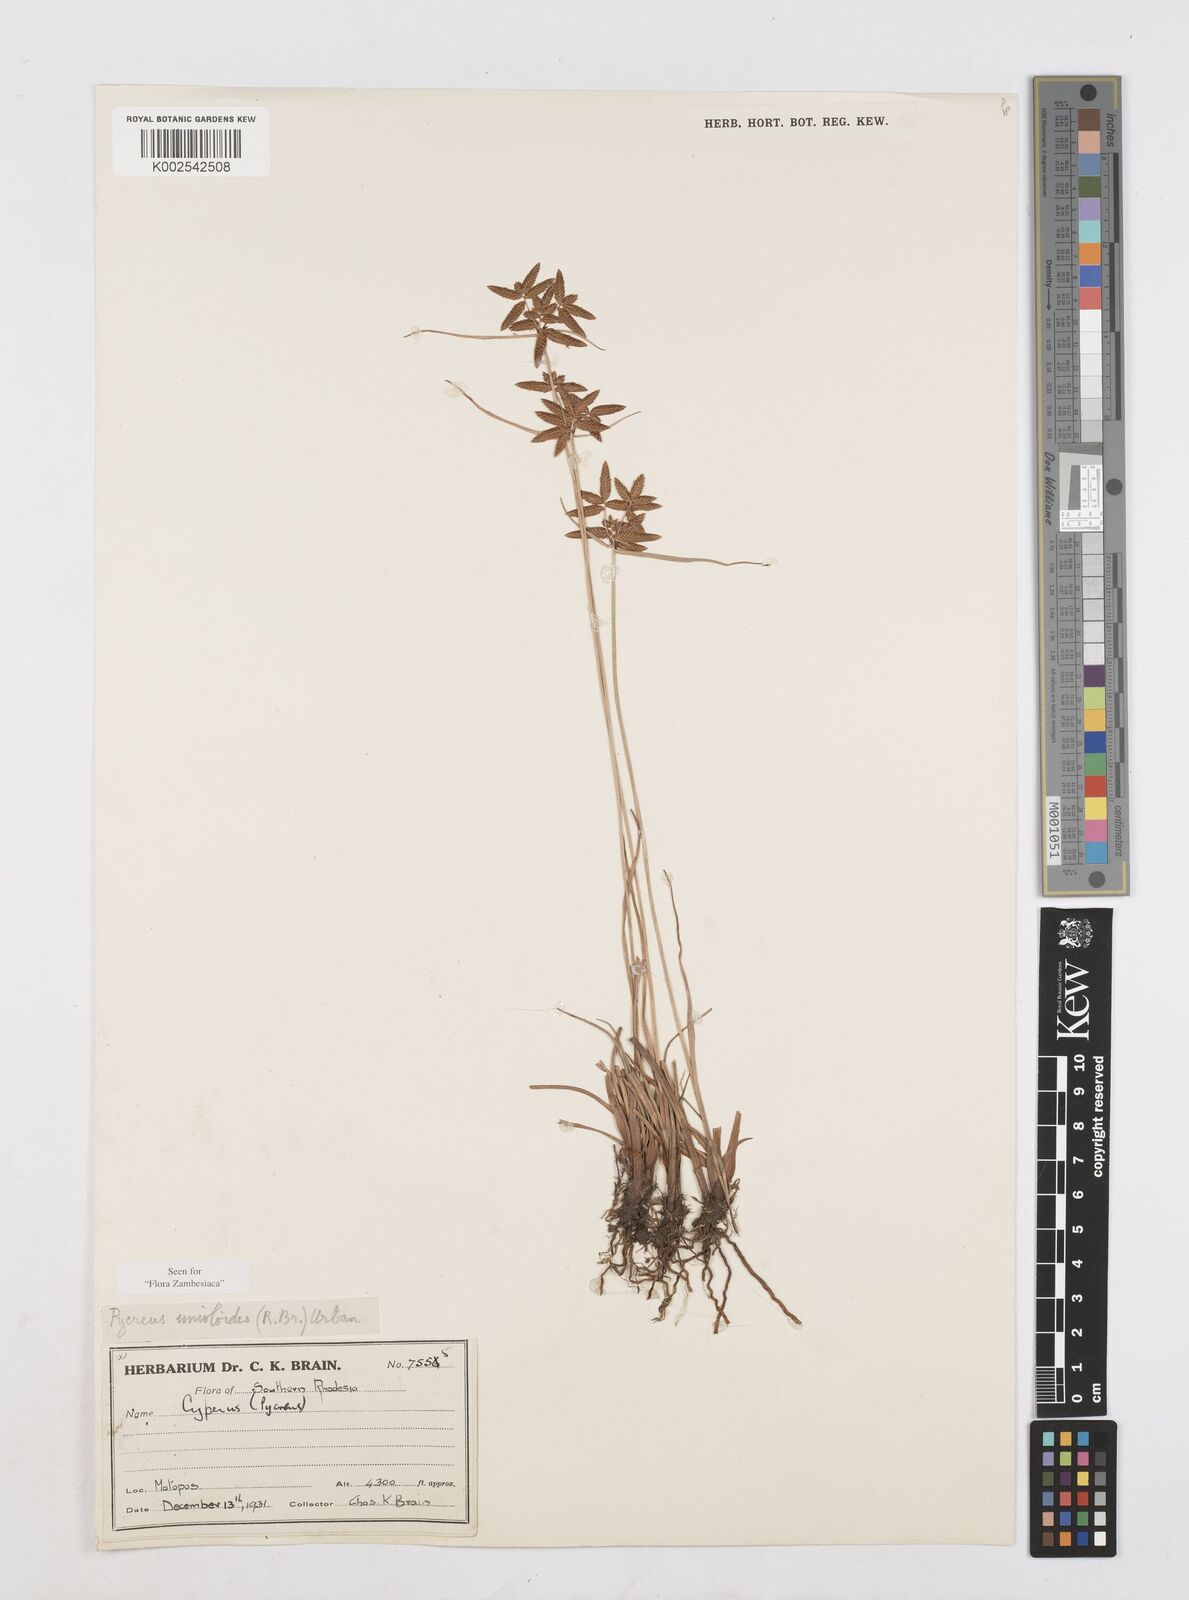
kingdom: Plantae
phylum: Tracheophyta
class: Liliopsida
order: Poales
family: Cyperaceae
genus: Cyperus
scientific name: Cyperus unioloides
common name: Uniola flatsedge
